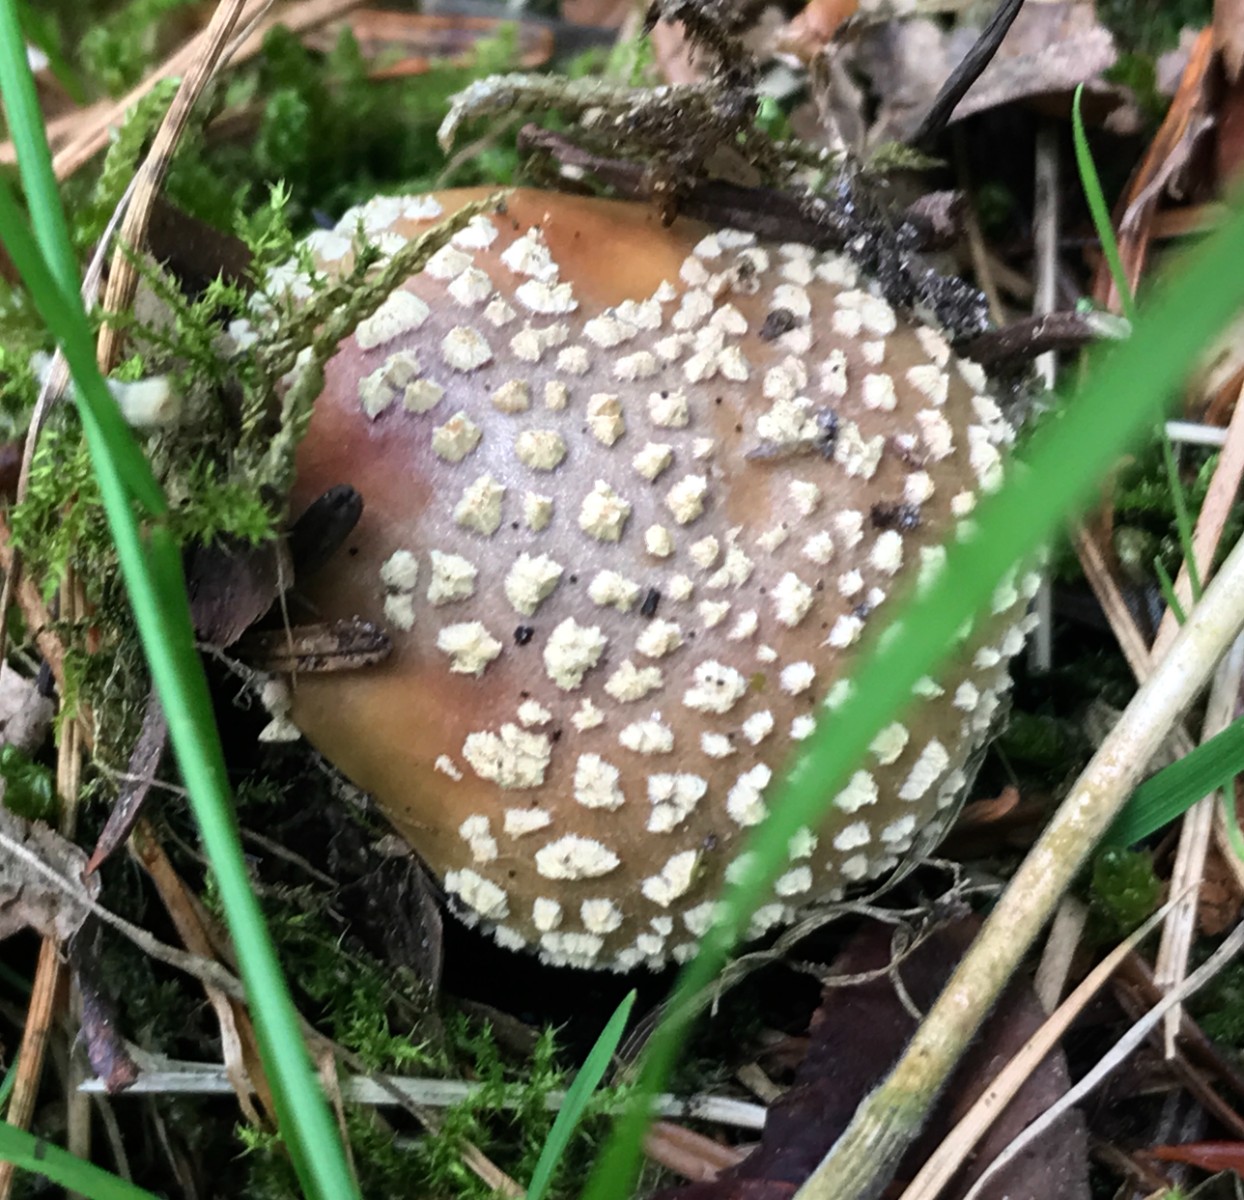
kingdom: Fungi
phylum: Basidiomycota
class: Agaricomycetes
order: Agaricales
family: Amanitaceae
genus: Amanita
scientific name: Amanita pantherina
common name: panter-fluesvamp
